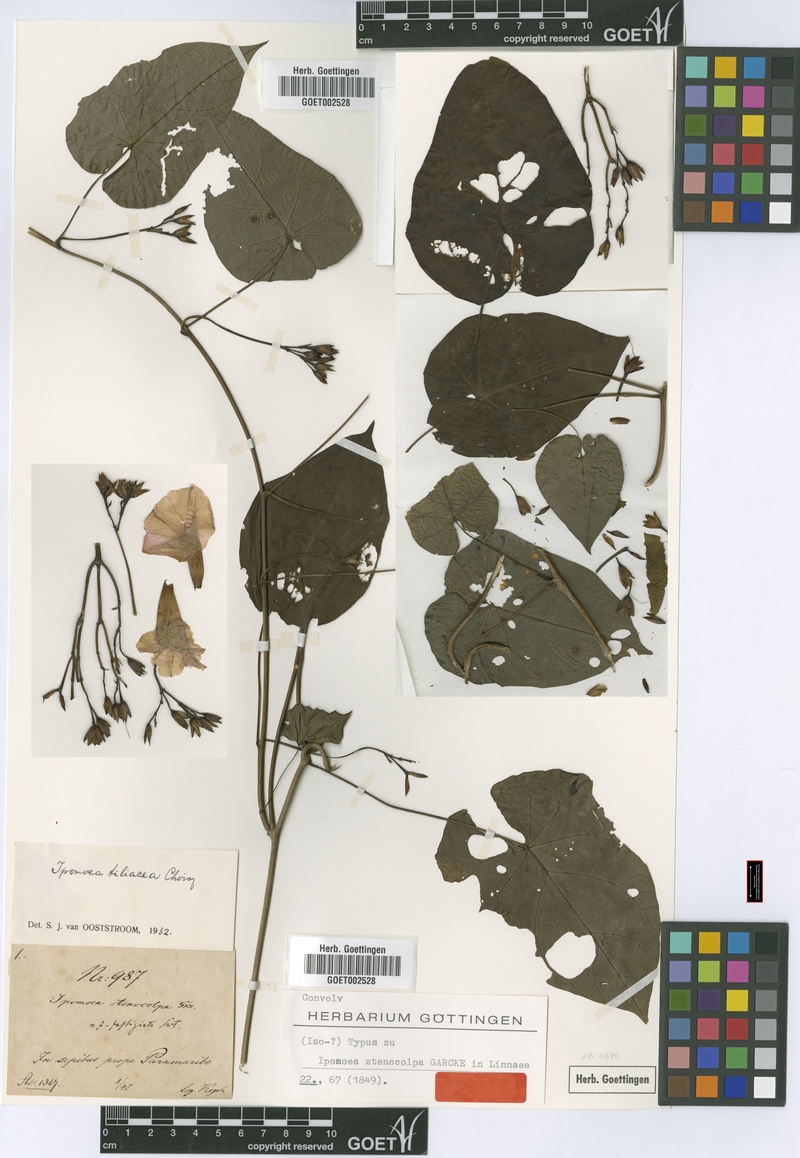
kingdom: Plantae
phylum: Tracheophyta
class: Magnoliopsida
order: Solanales
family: Convolvulaceae
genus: Ipomoea
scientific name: Ipomoea tiliacea
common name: Wild potato vine
